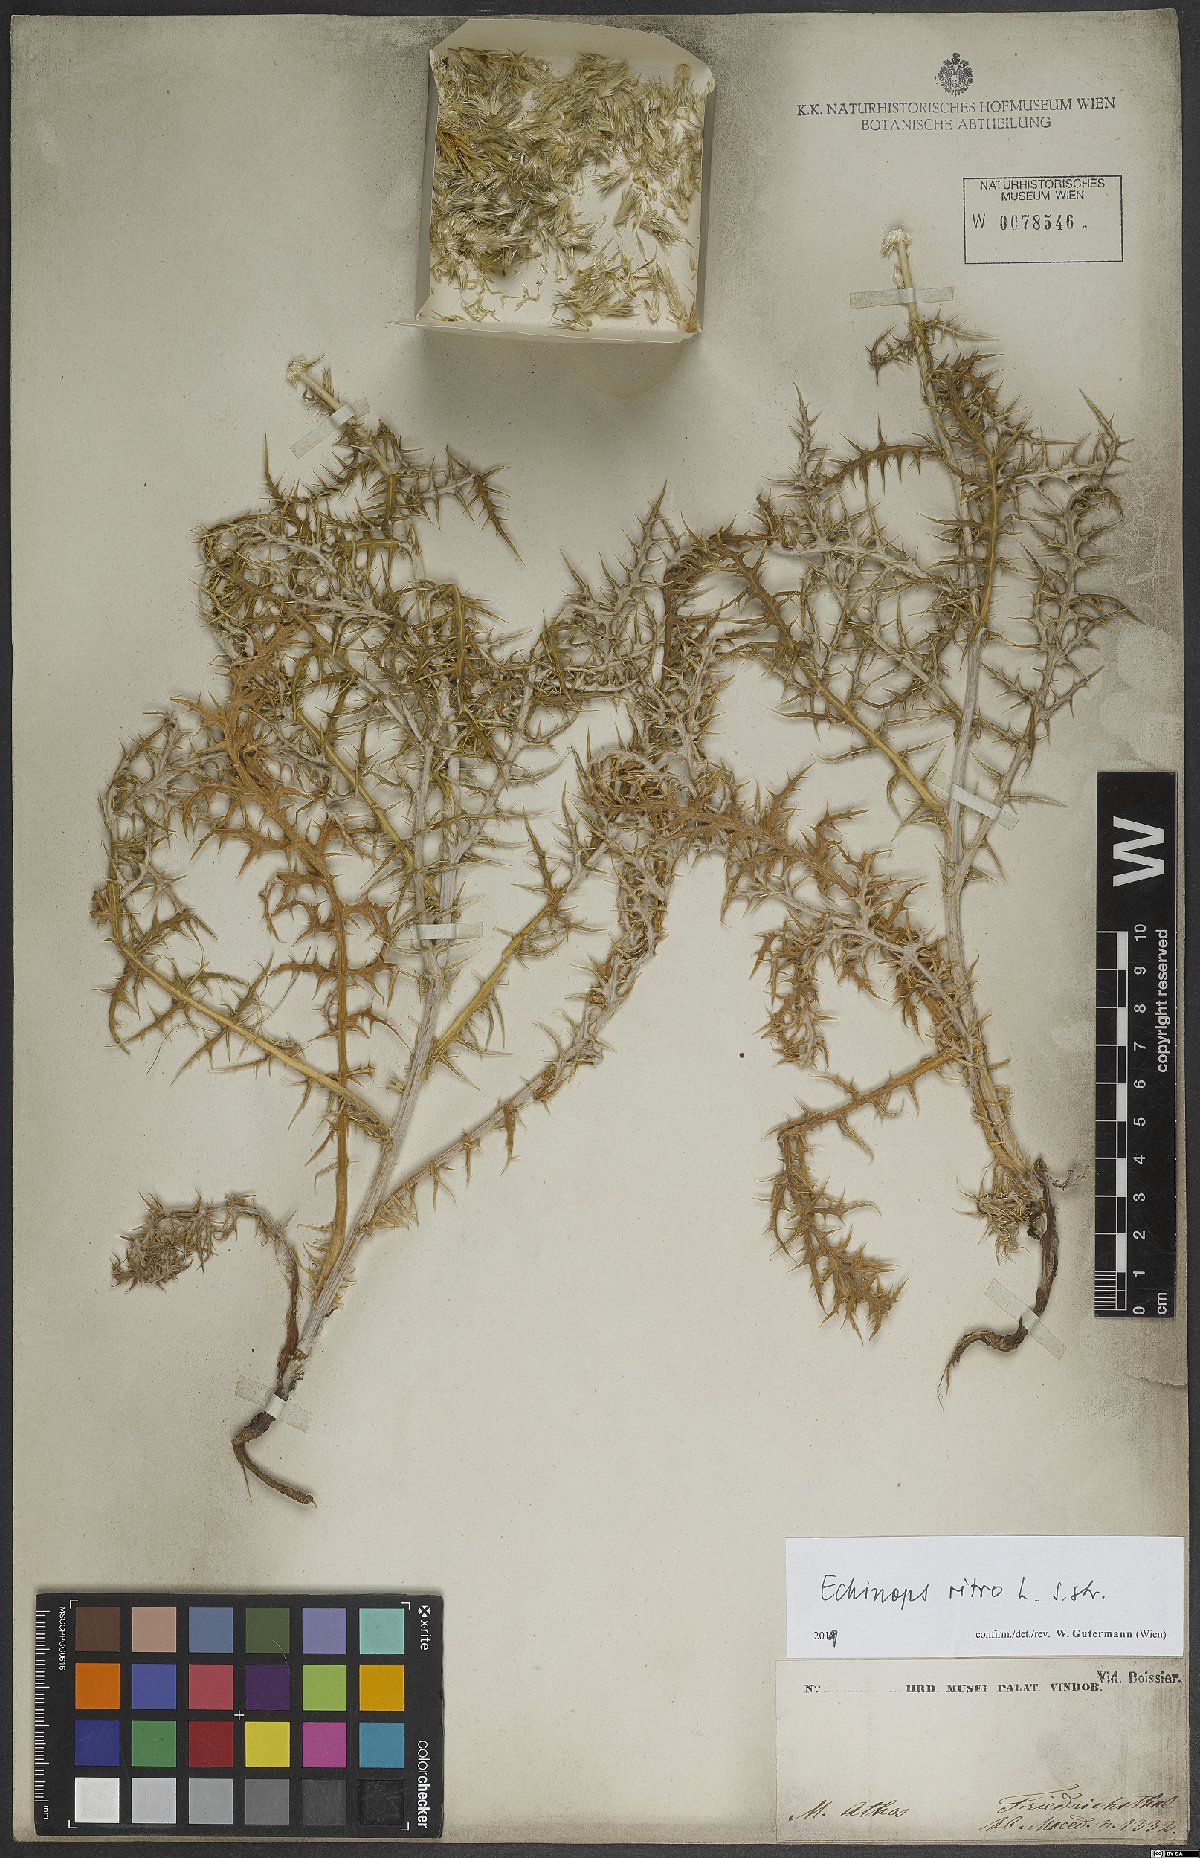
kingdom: Plantae
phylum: Tracheophyta
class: Magnoliopsida
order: Asterales
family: Asteraceae
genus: Echinops
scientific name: Echinops ritro
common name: Globe thistle
